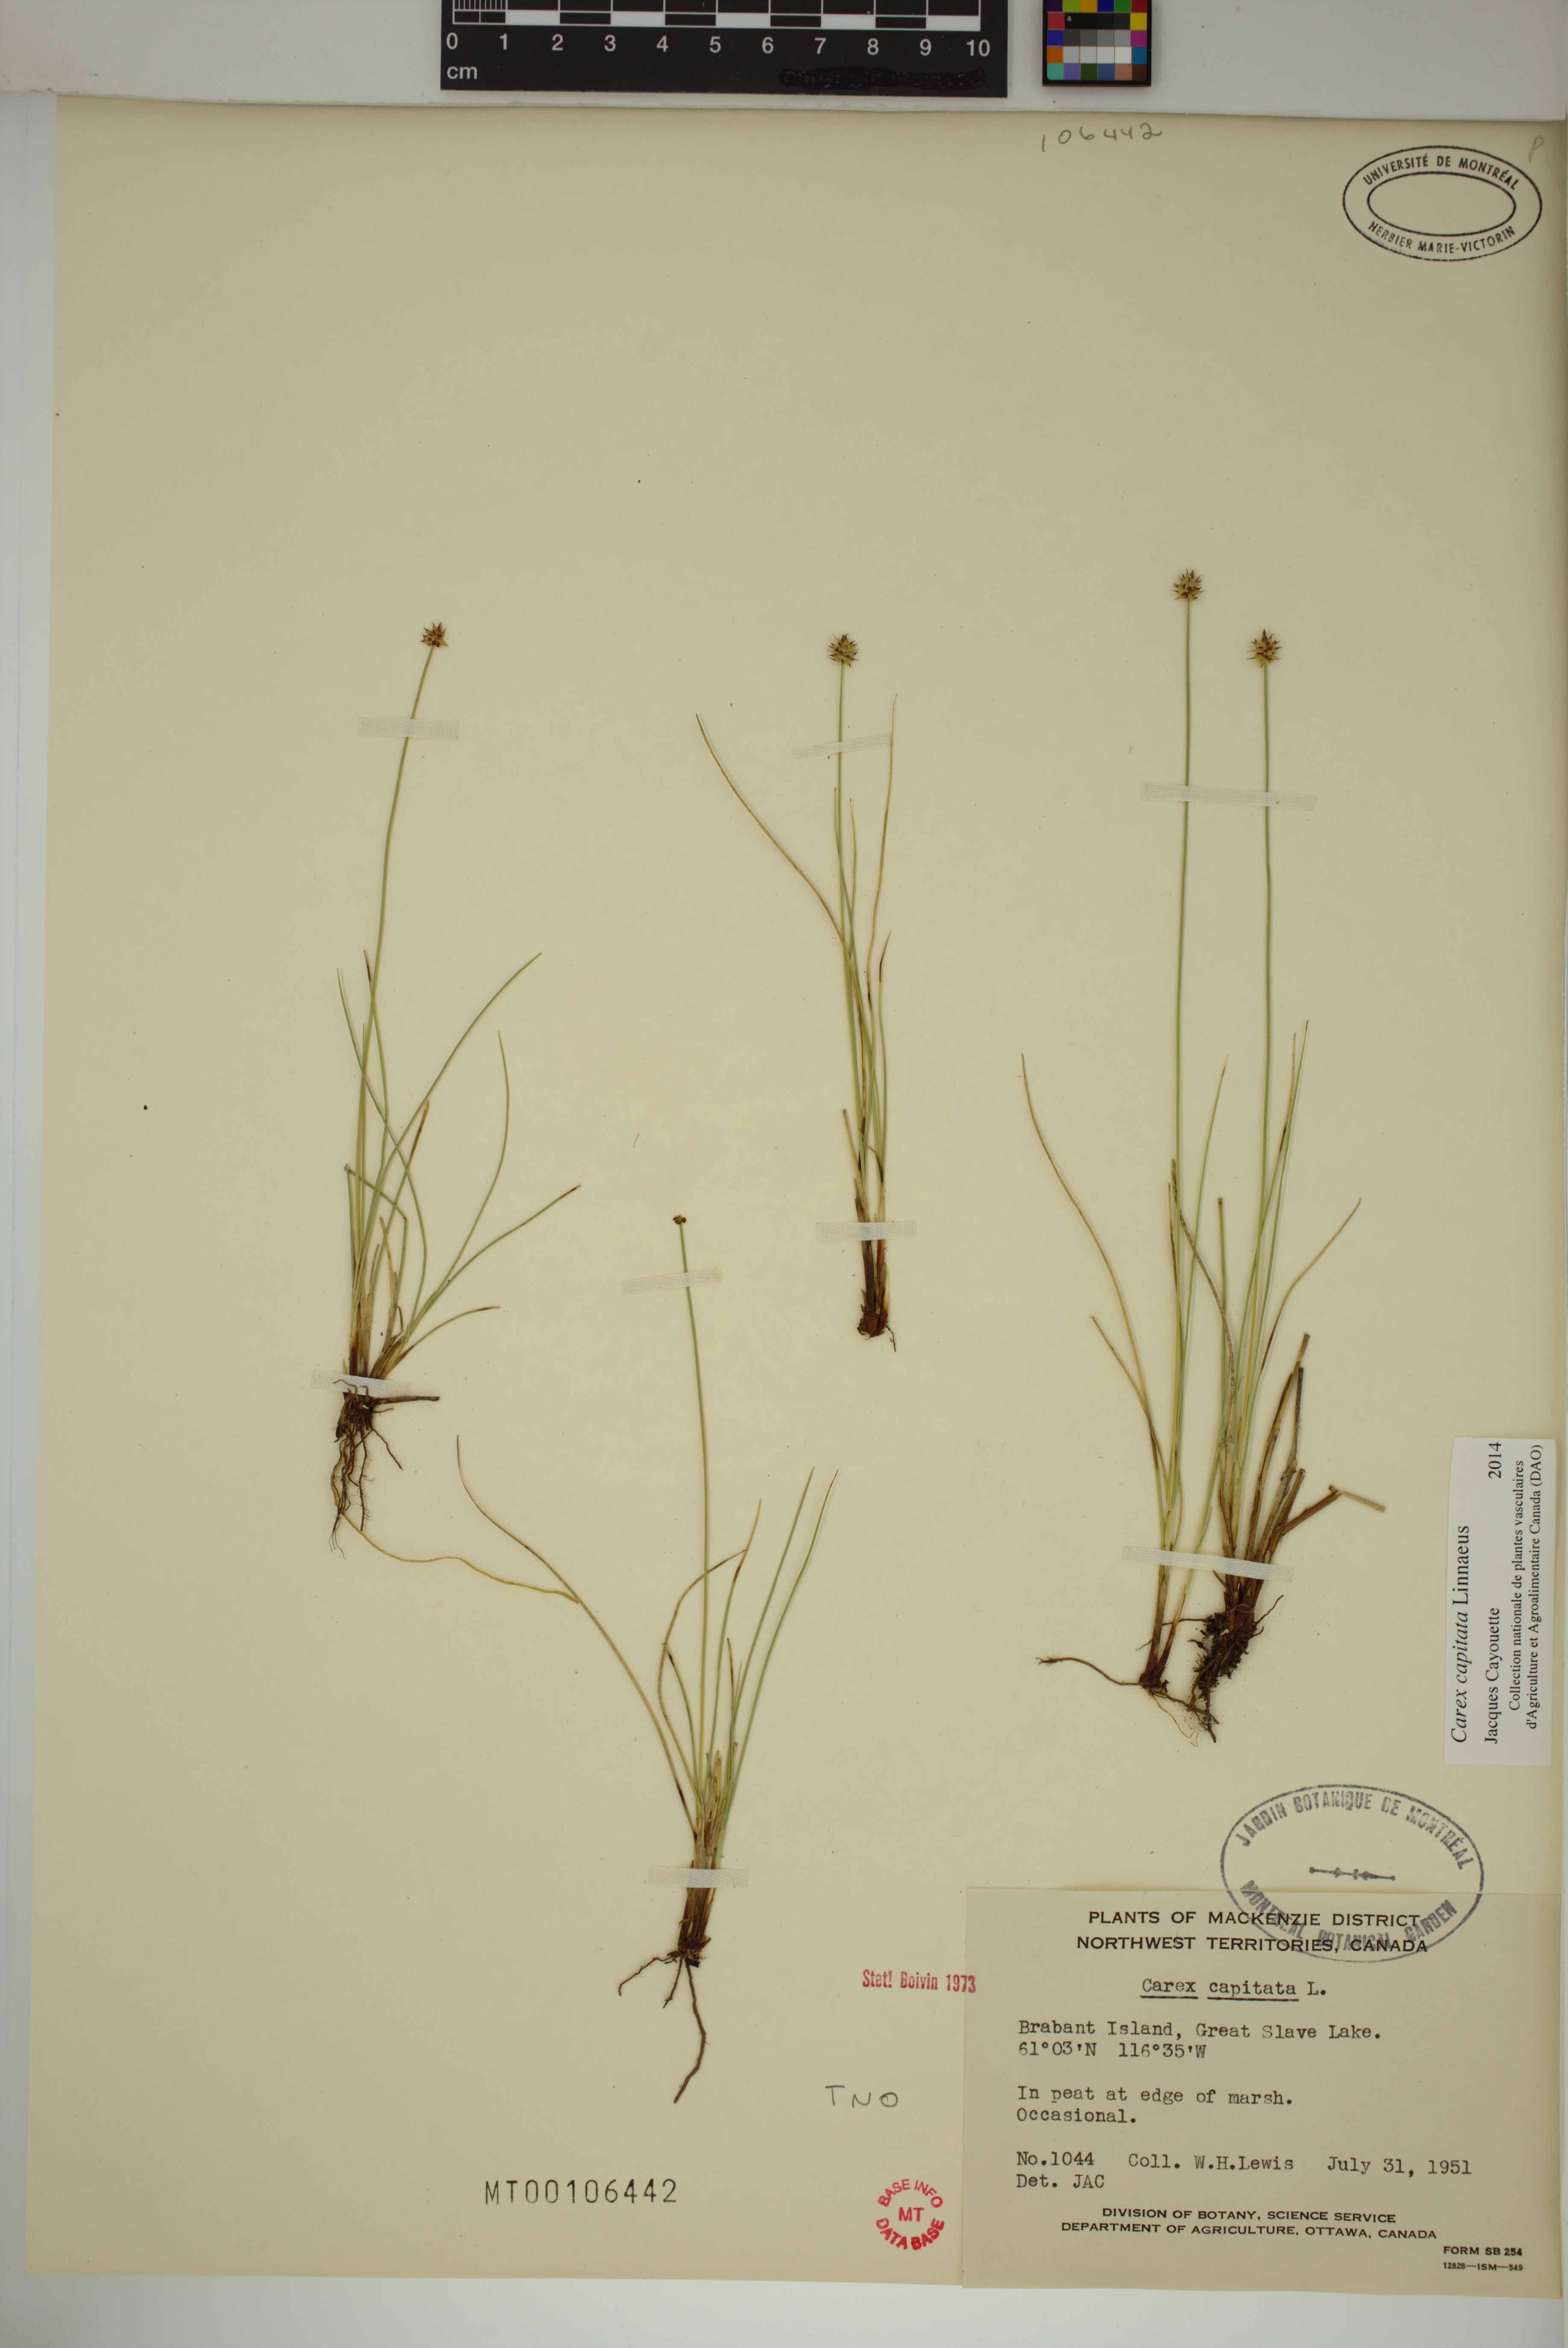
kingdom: Plantae
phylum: Tracheophyta
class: Liliopsida
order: Poales
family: Cyperaceae
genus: Carex
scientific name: Carex capitata
